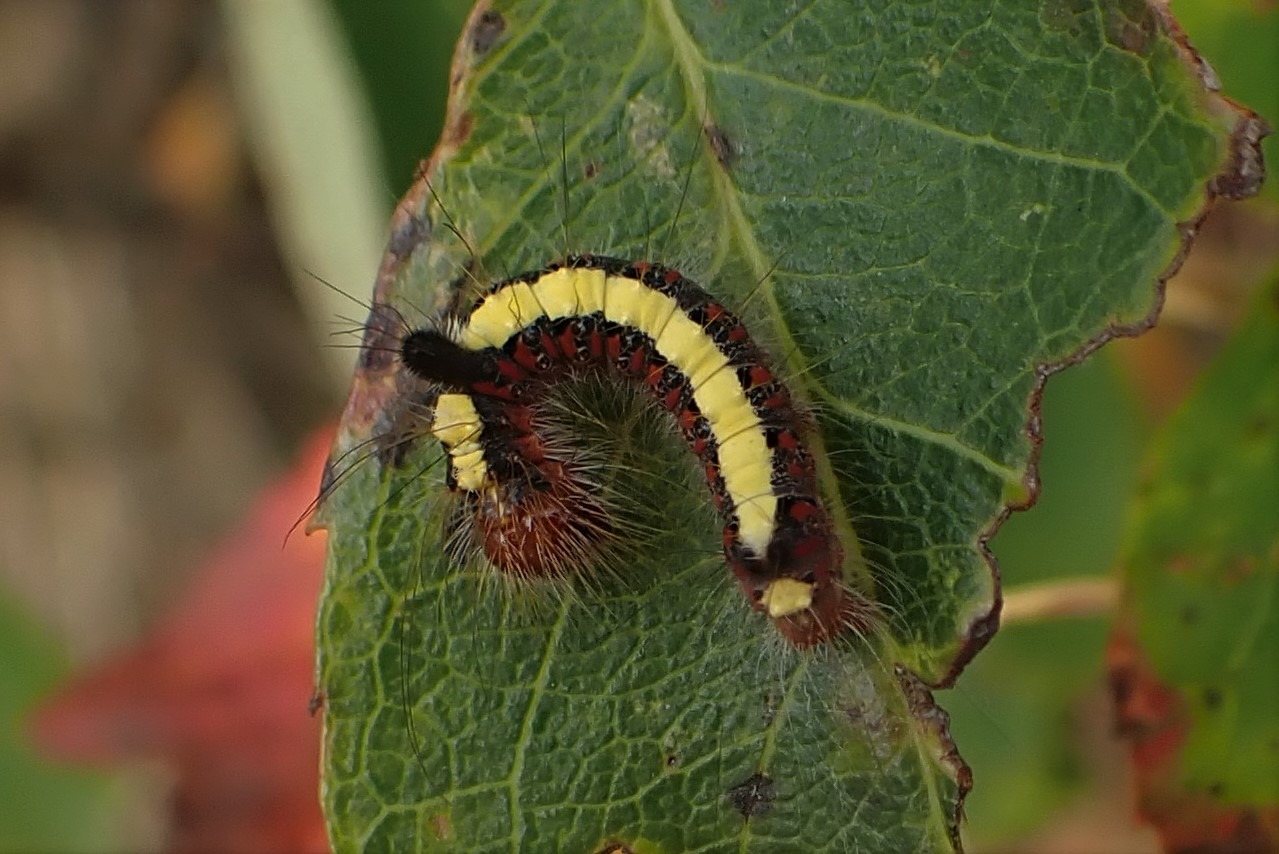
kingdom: Animalia
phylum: Arthropoda
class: Insecta
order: Lepidoptera
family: Noctuidae
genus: Acronicta
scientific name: Acronicta psi
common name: Psi-ugle
